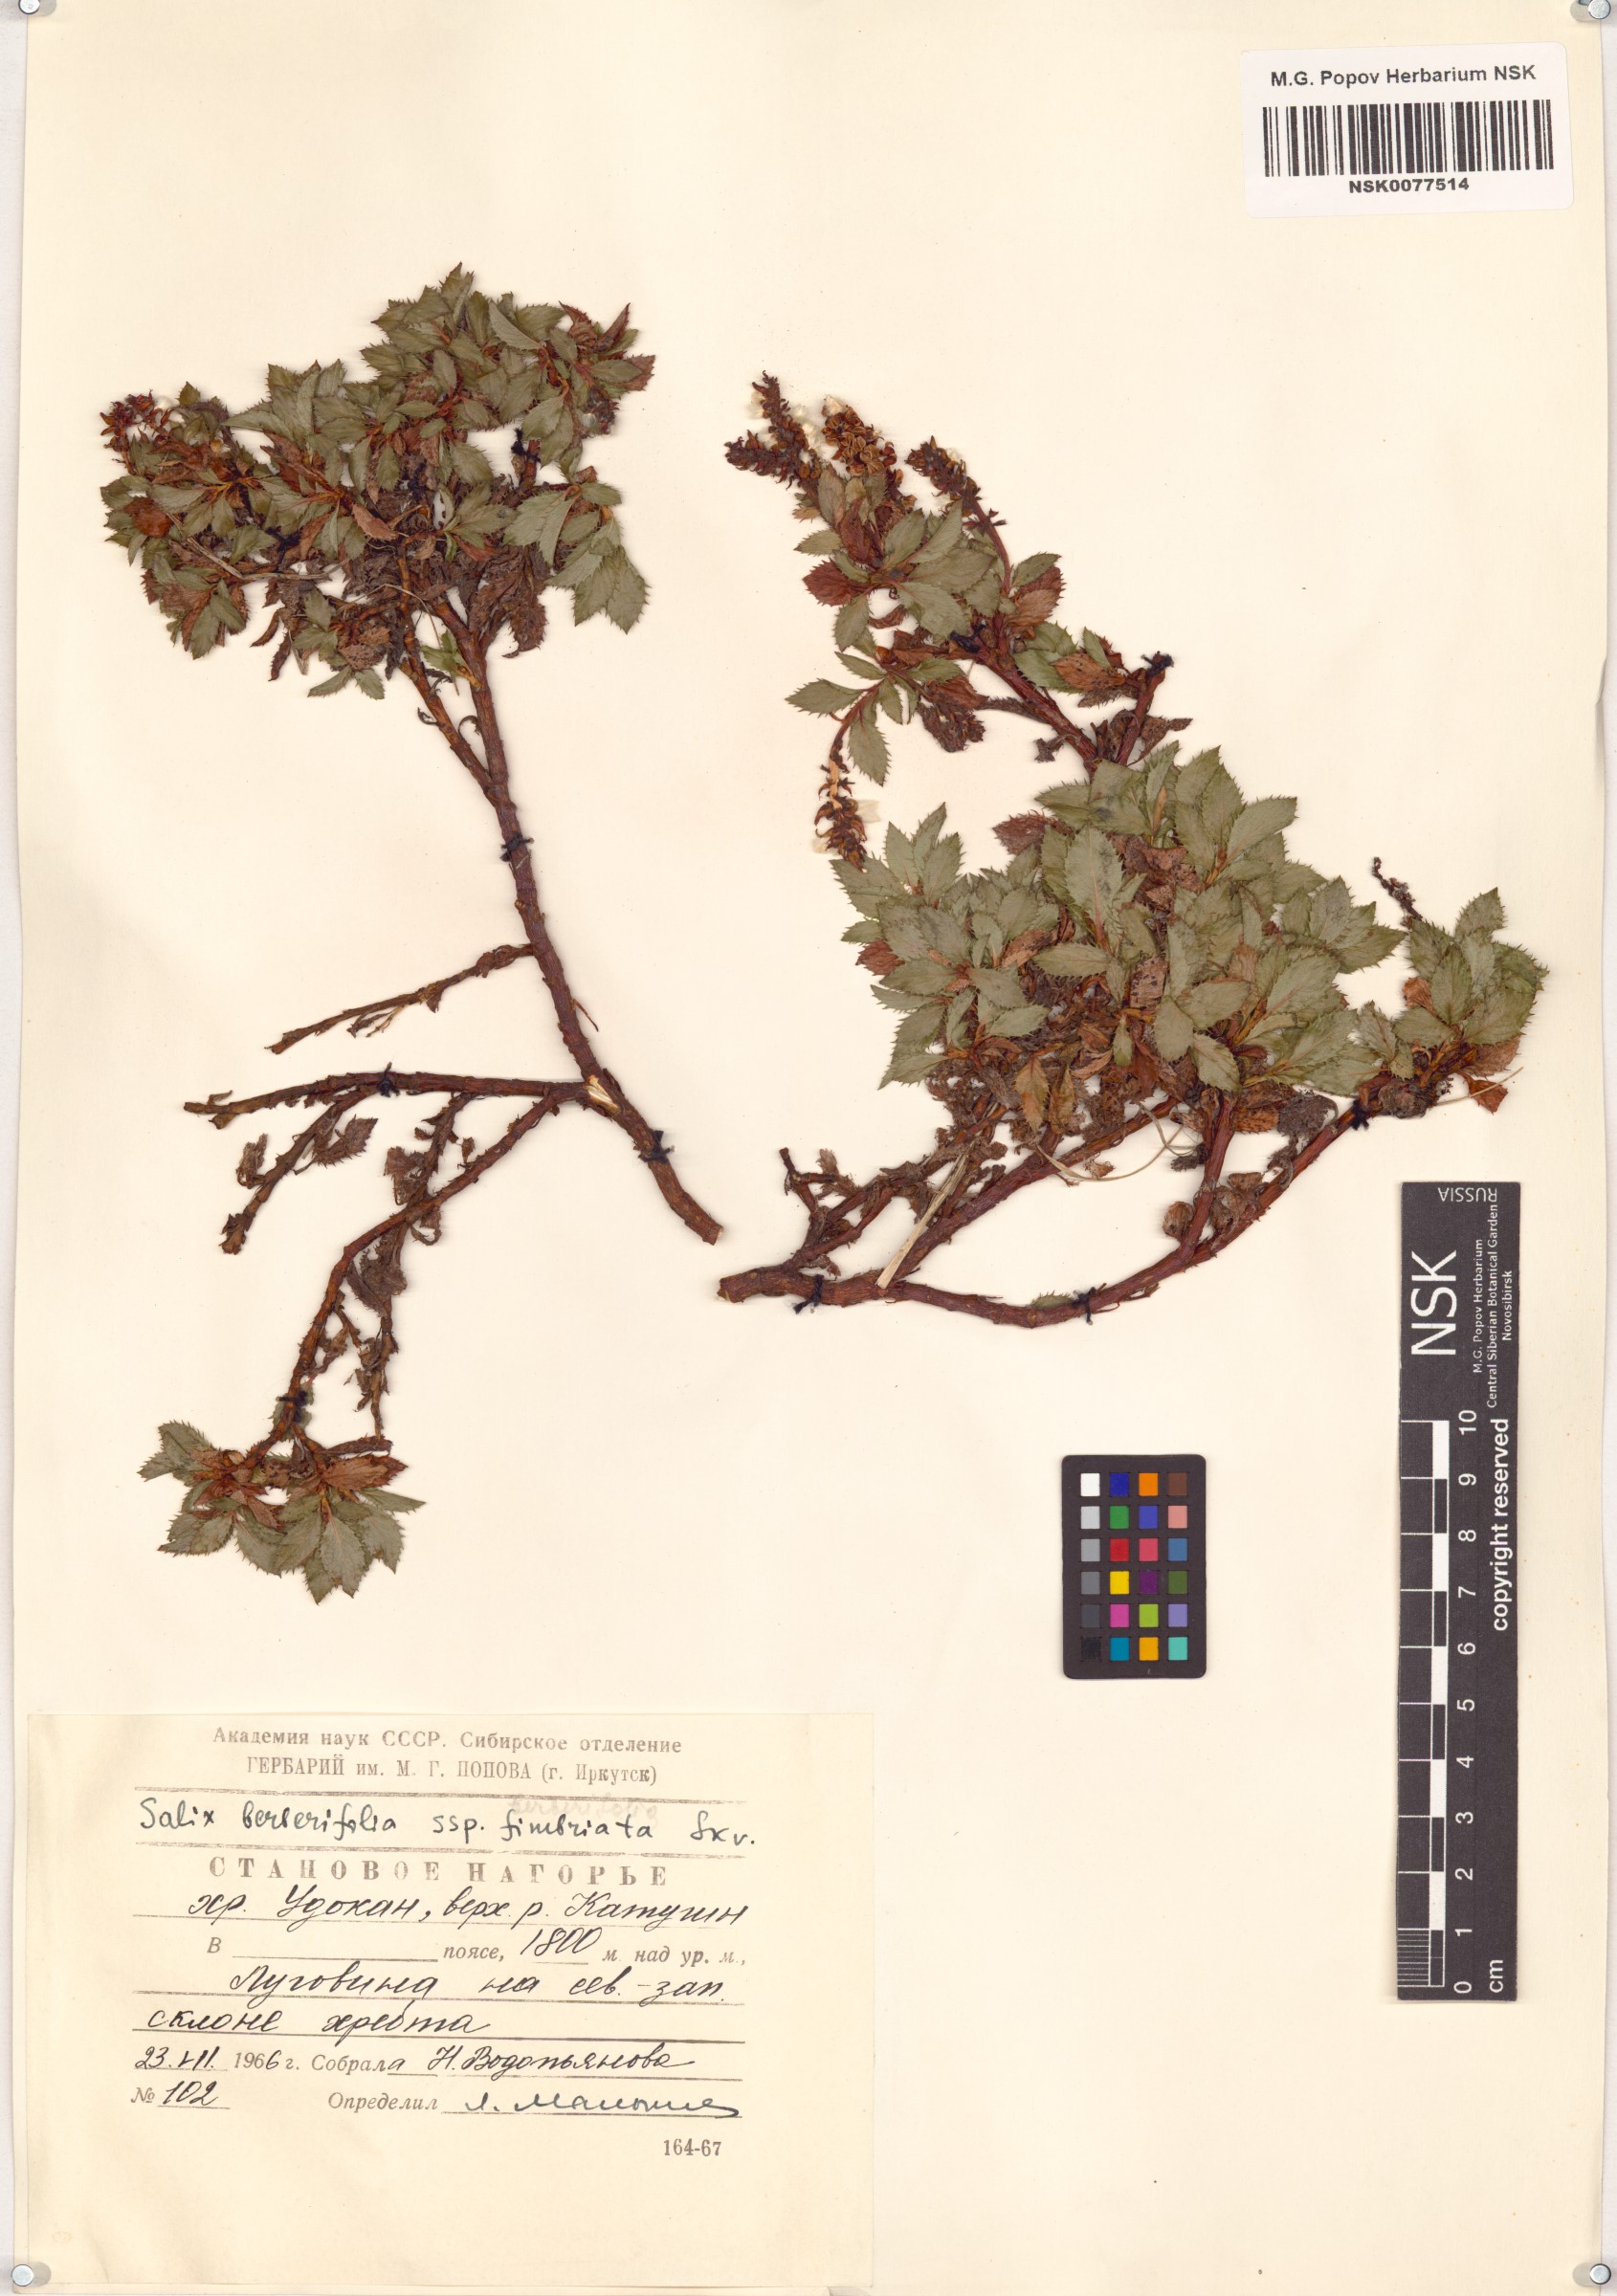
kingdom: Plantae
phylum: Tracheophyta
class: Magnoliopsida
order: Malpighiales
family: Salicaceae
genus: Salix
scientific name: Salix berberifolia
